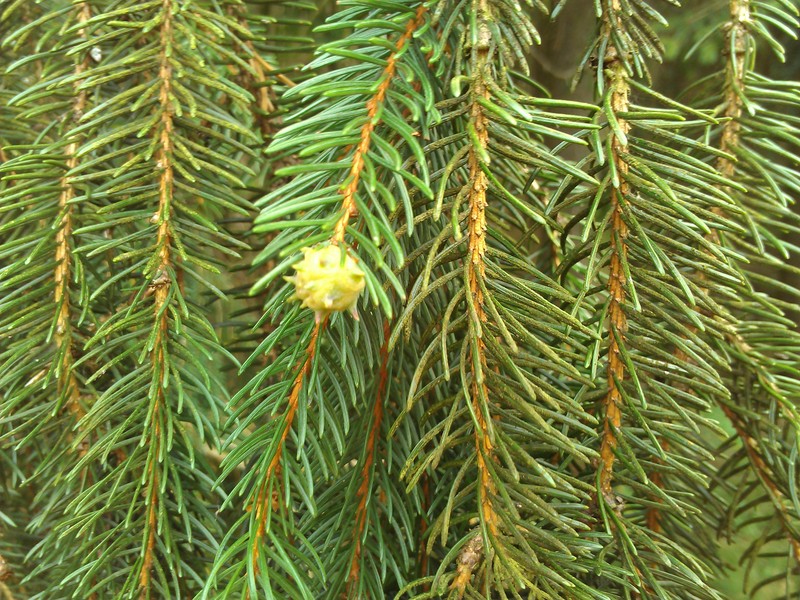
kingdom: Animalia
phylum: Arthropoda
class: Insecta
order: Hemiptera
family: Adelgidae
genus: Adelges
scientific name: Adelges
